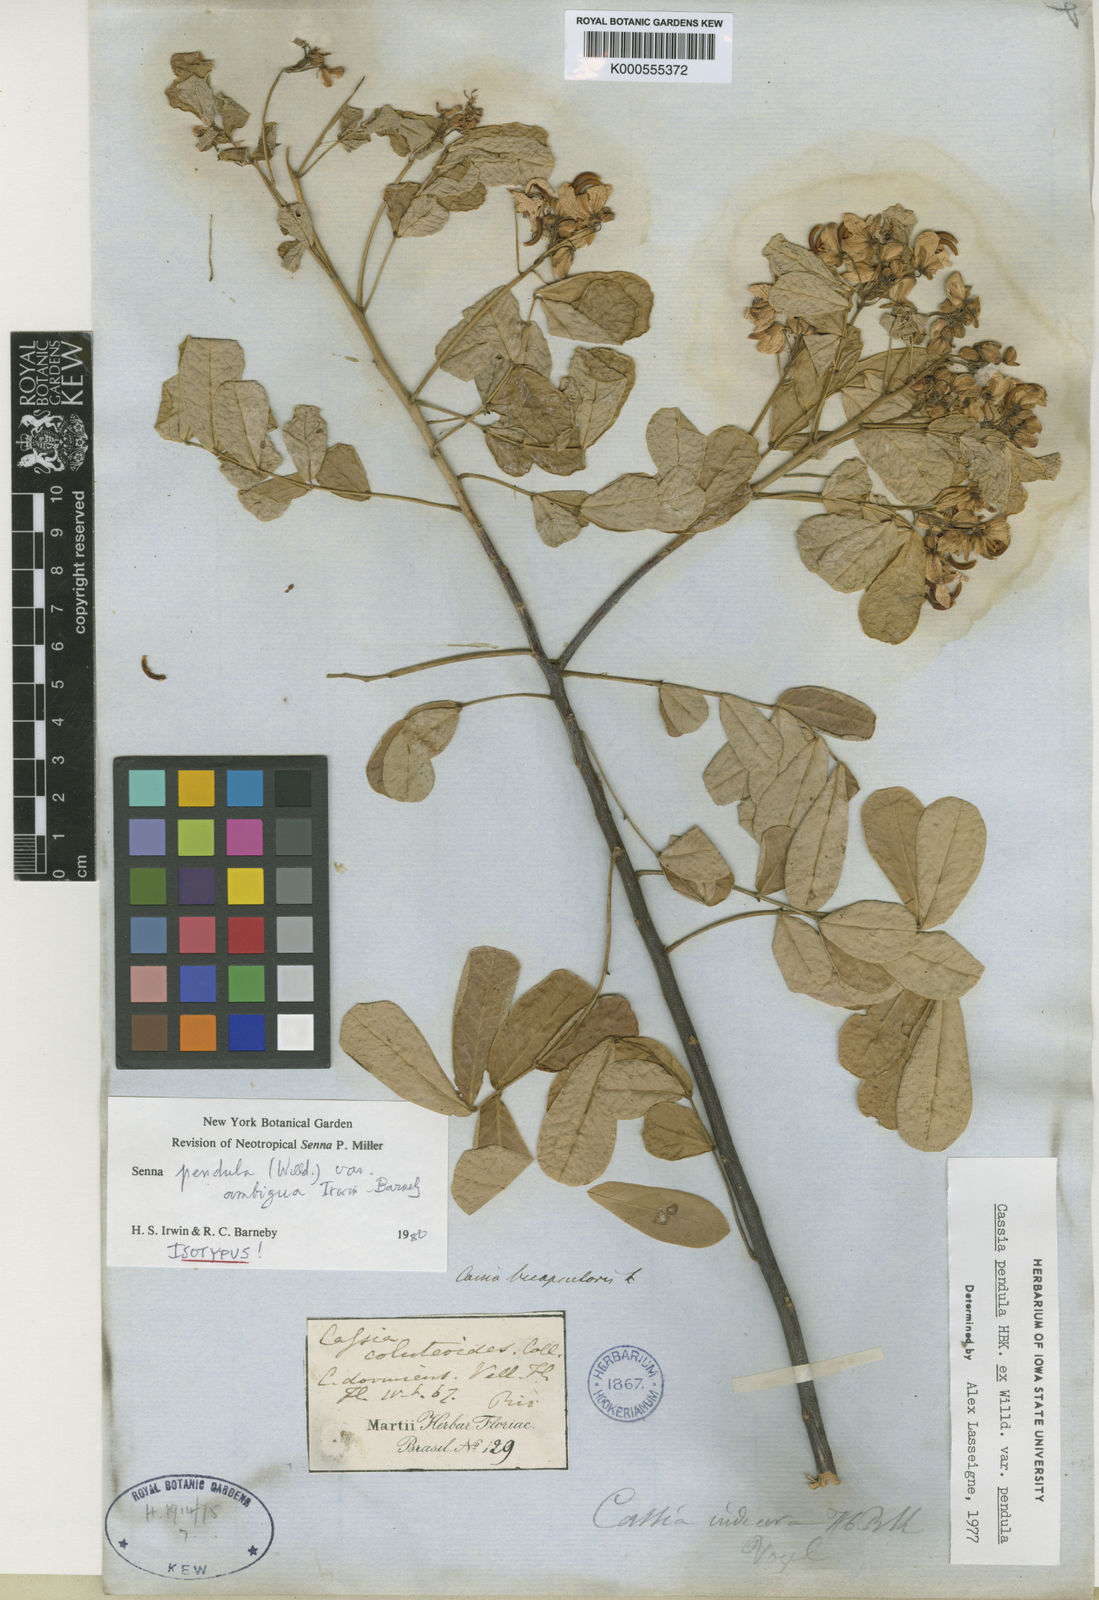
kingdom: Plantae
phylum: Tracheophyta
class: Magnoliopsida
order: Fabales
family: Fabaceae
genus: Senna
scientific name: Senna pendula
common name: Easter cassia
